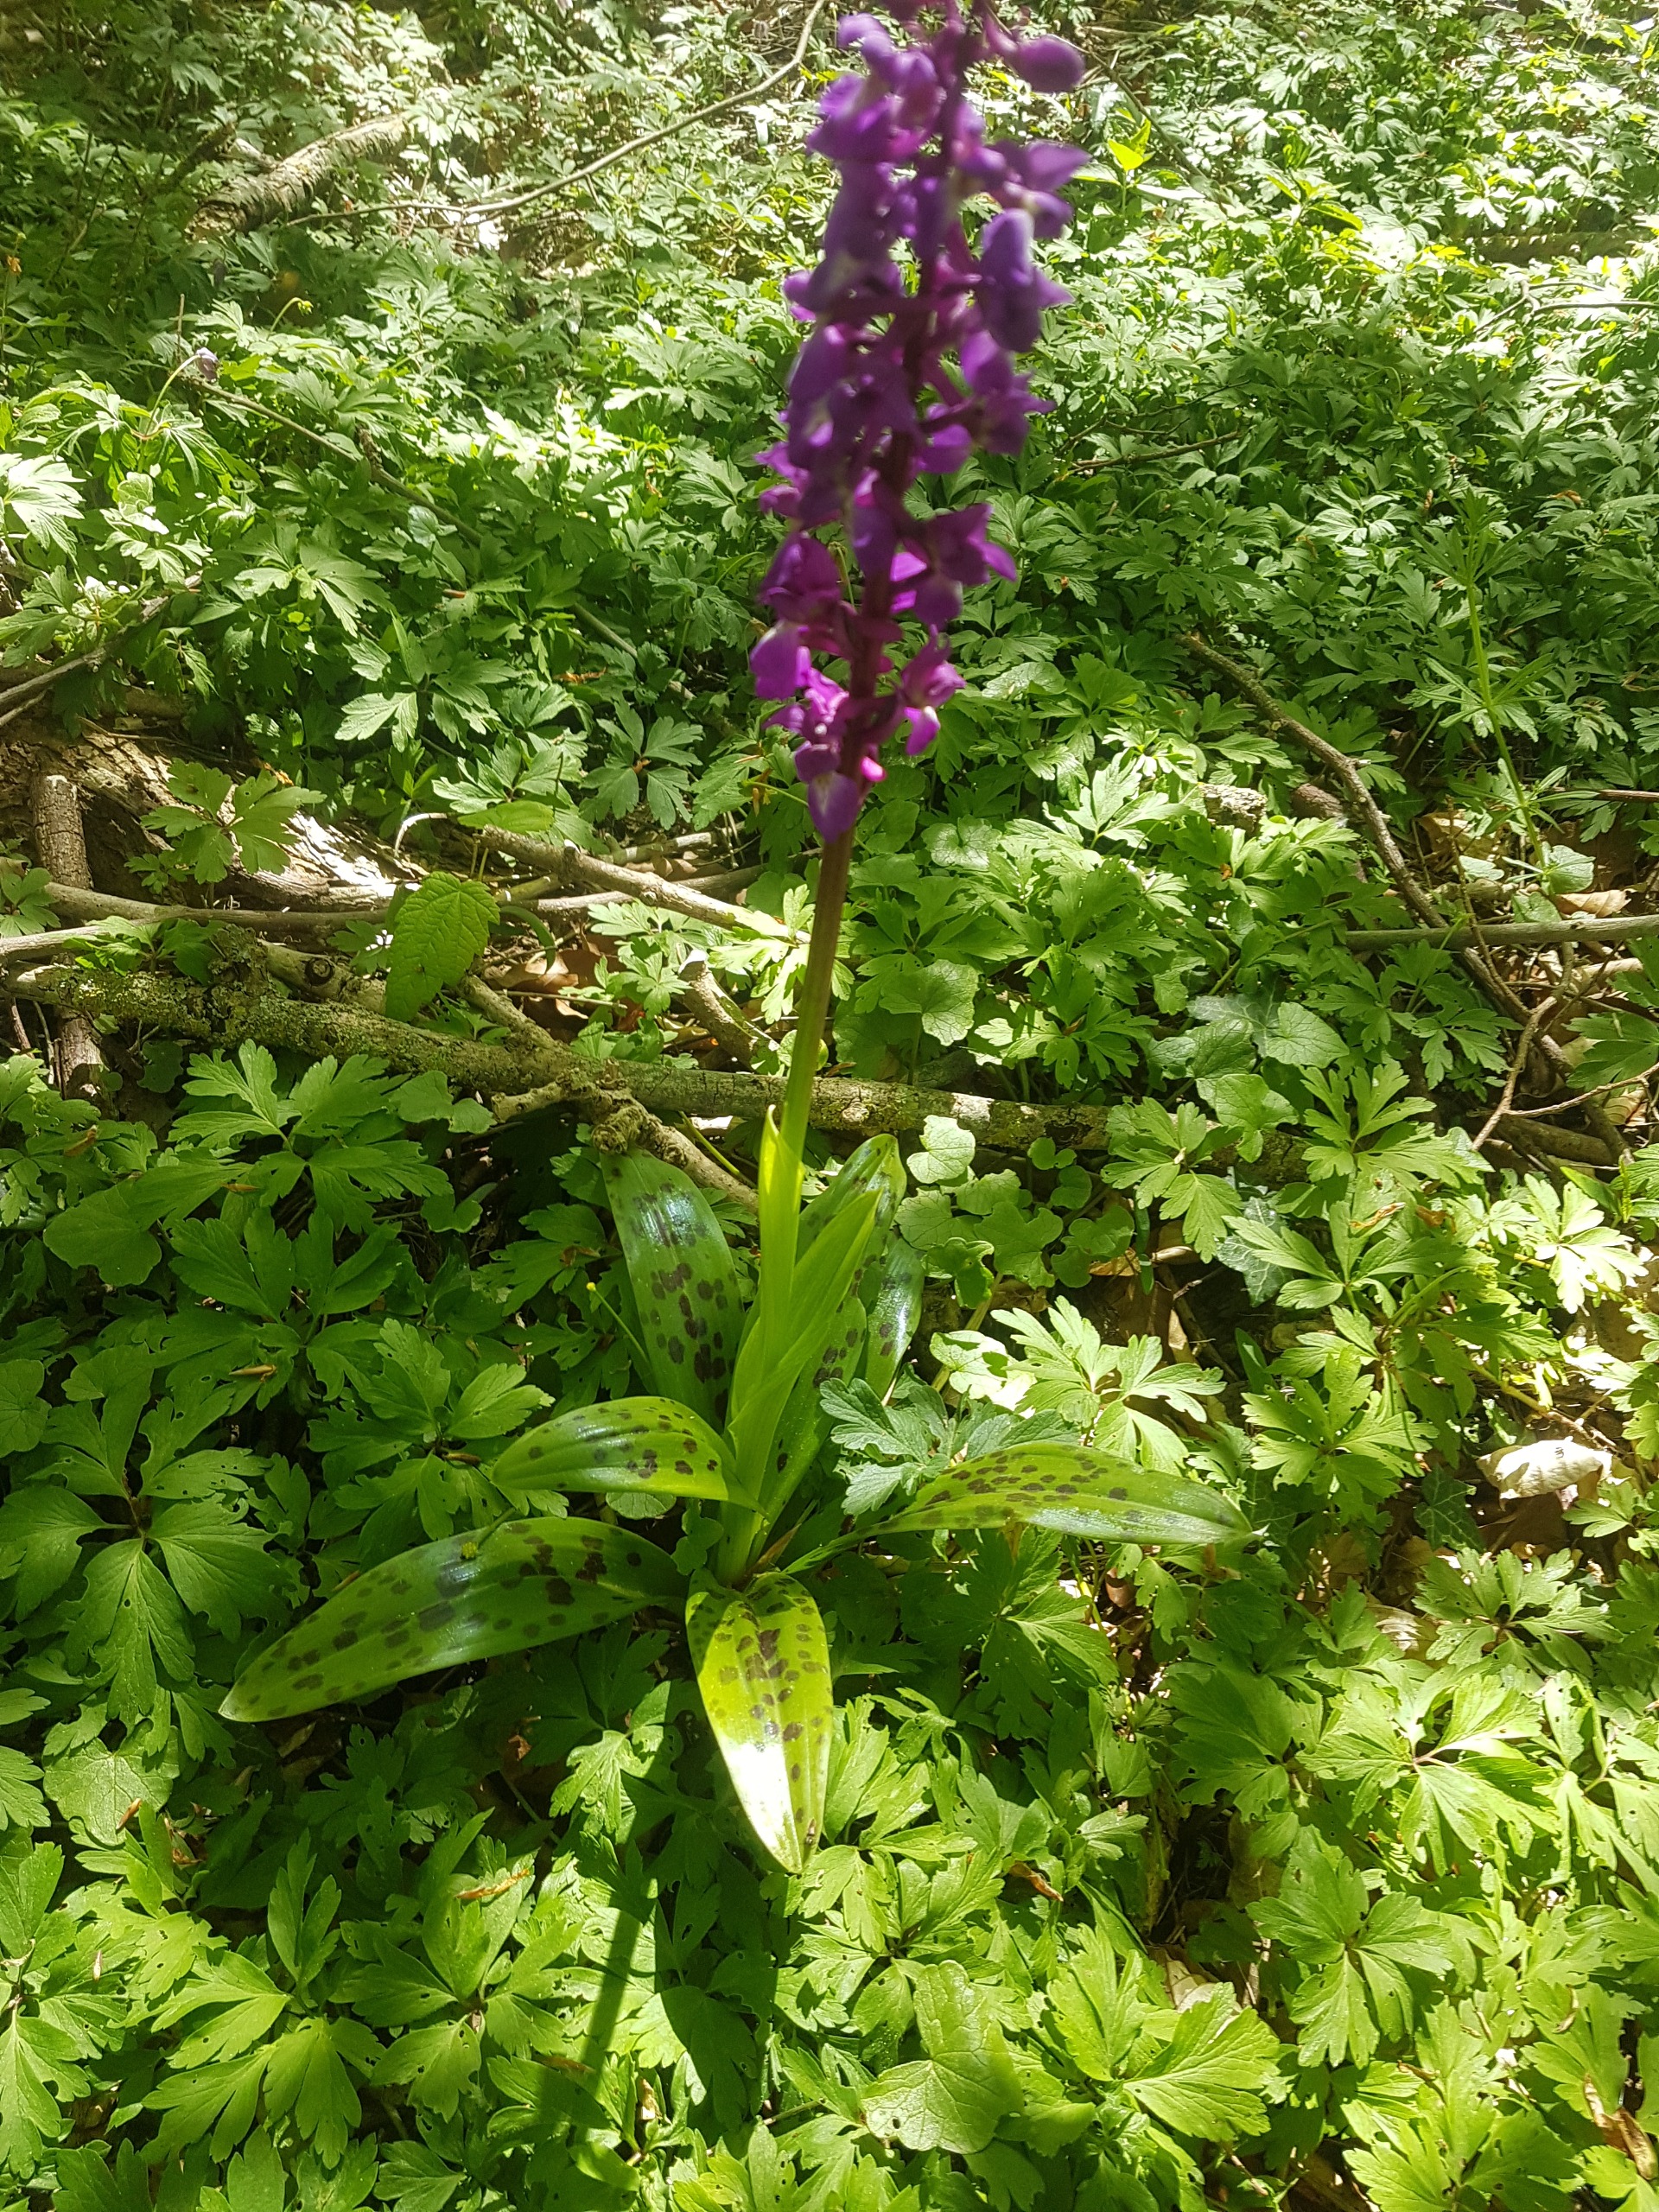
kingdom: Plantae
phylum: Tracheophyta
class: Liliopsida
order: Asparagales
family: Orchidaceae
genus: Orchis
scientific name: Orchis mascula
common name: Tyndakset gøgeurt
